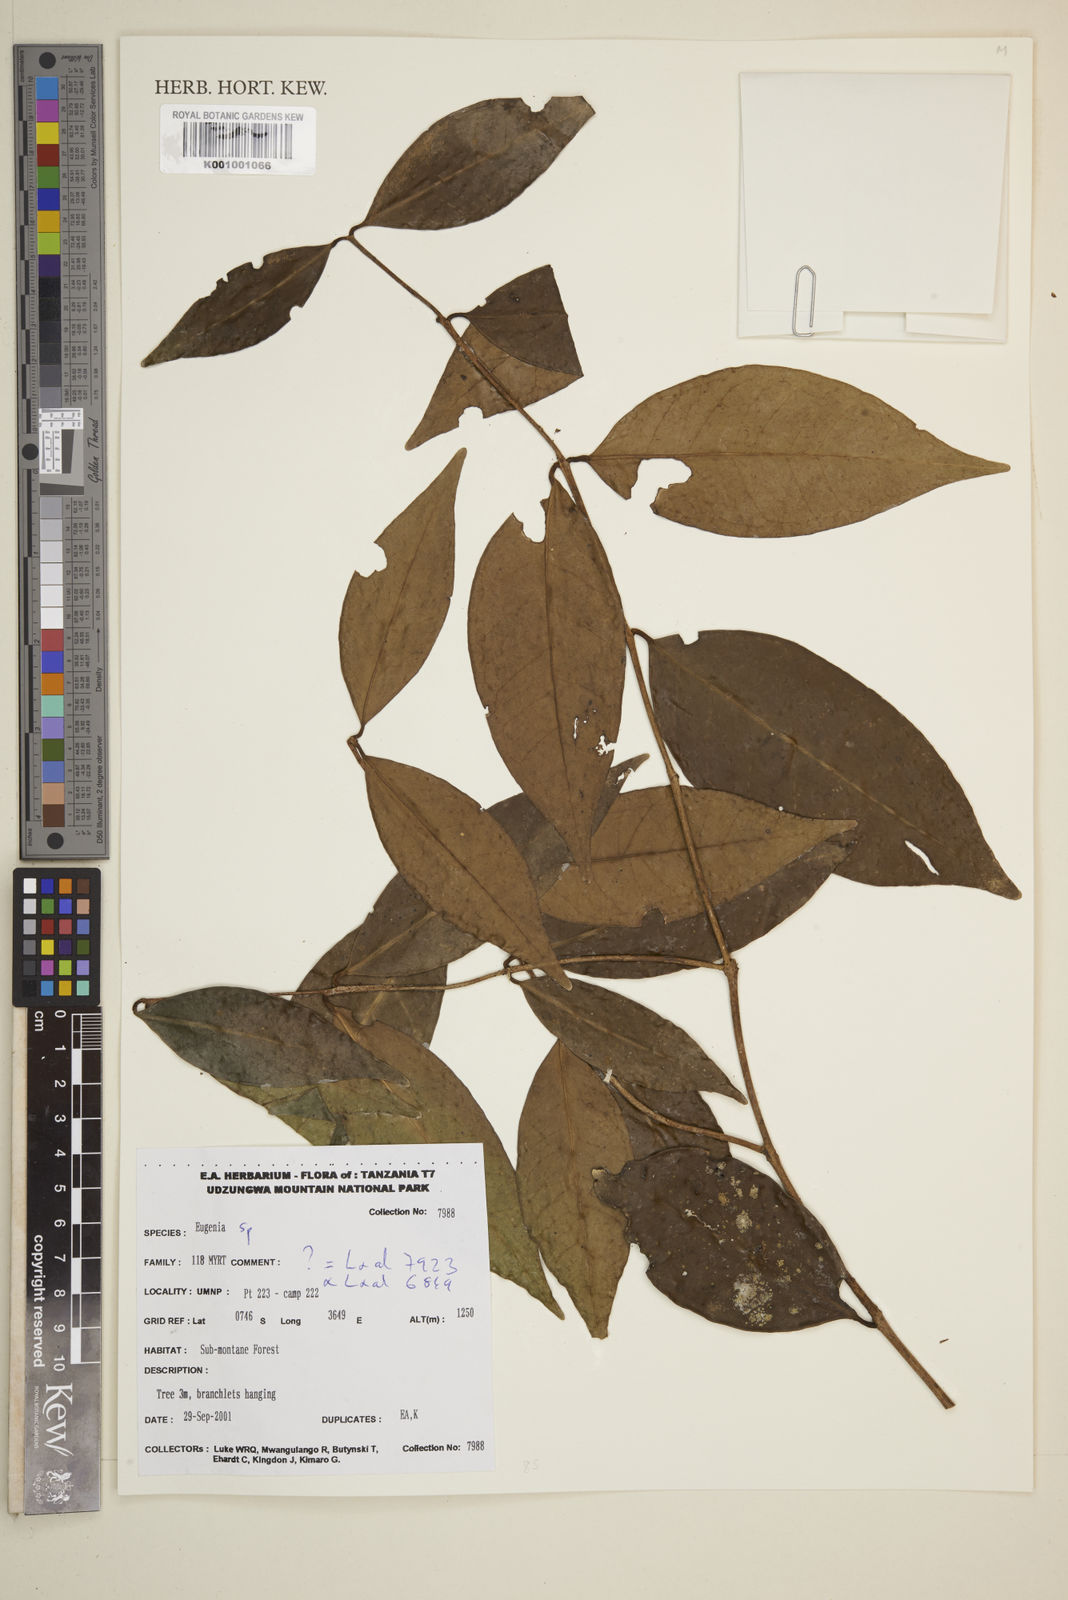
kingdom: Plantae
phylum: Tracheophyta
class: Magnoliopsida
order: Myrtales
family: Myrtaceae
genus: Eugenia
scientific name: Eugenia
